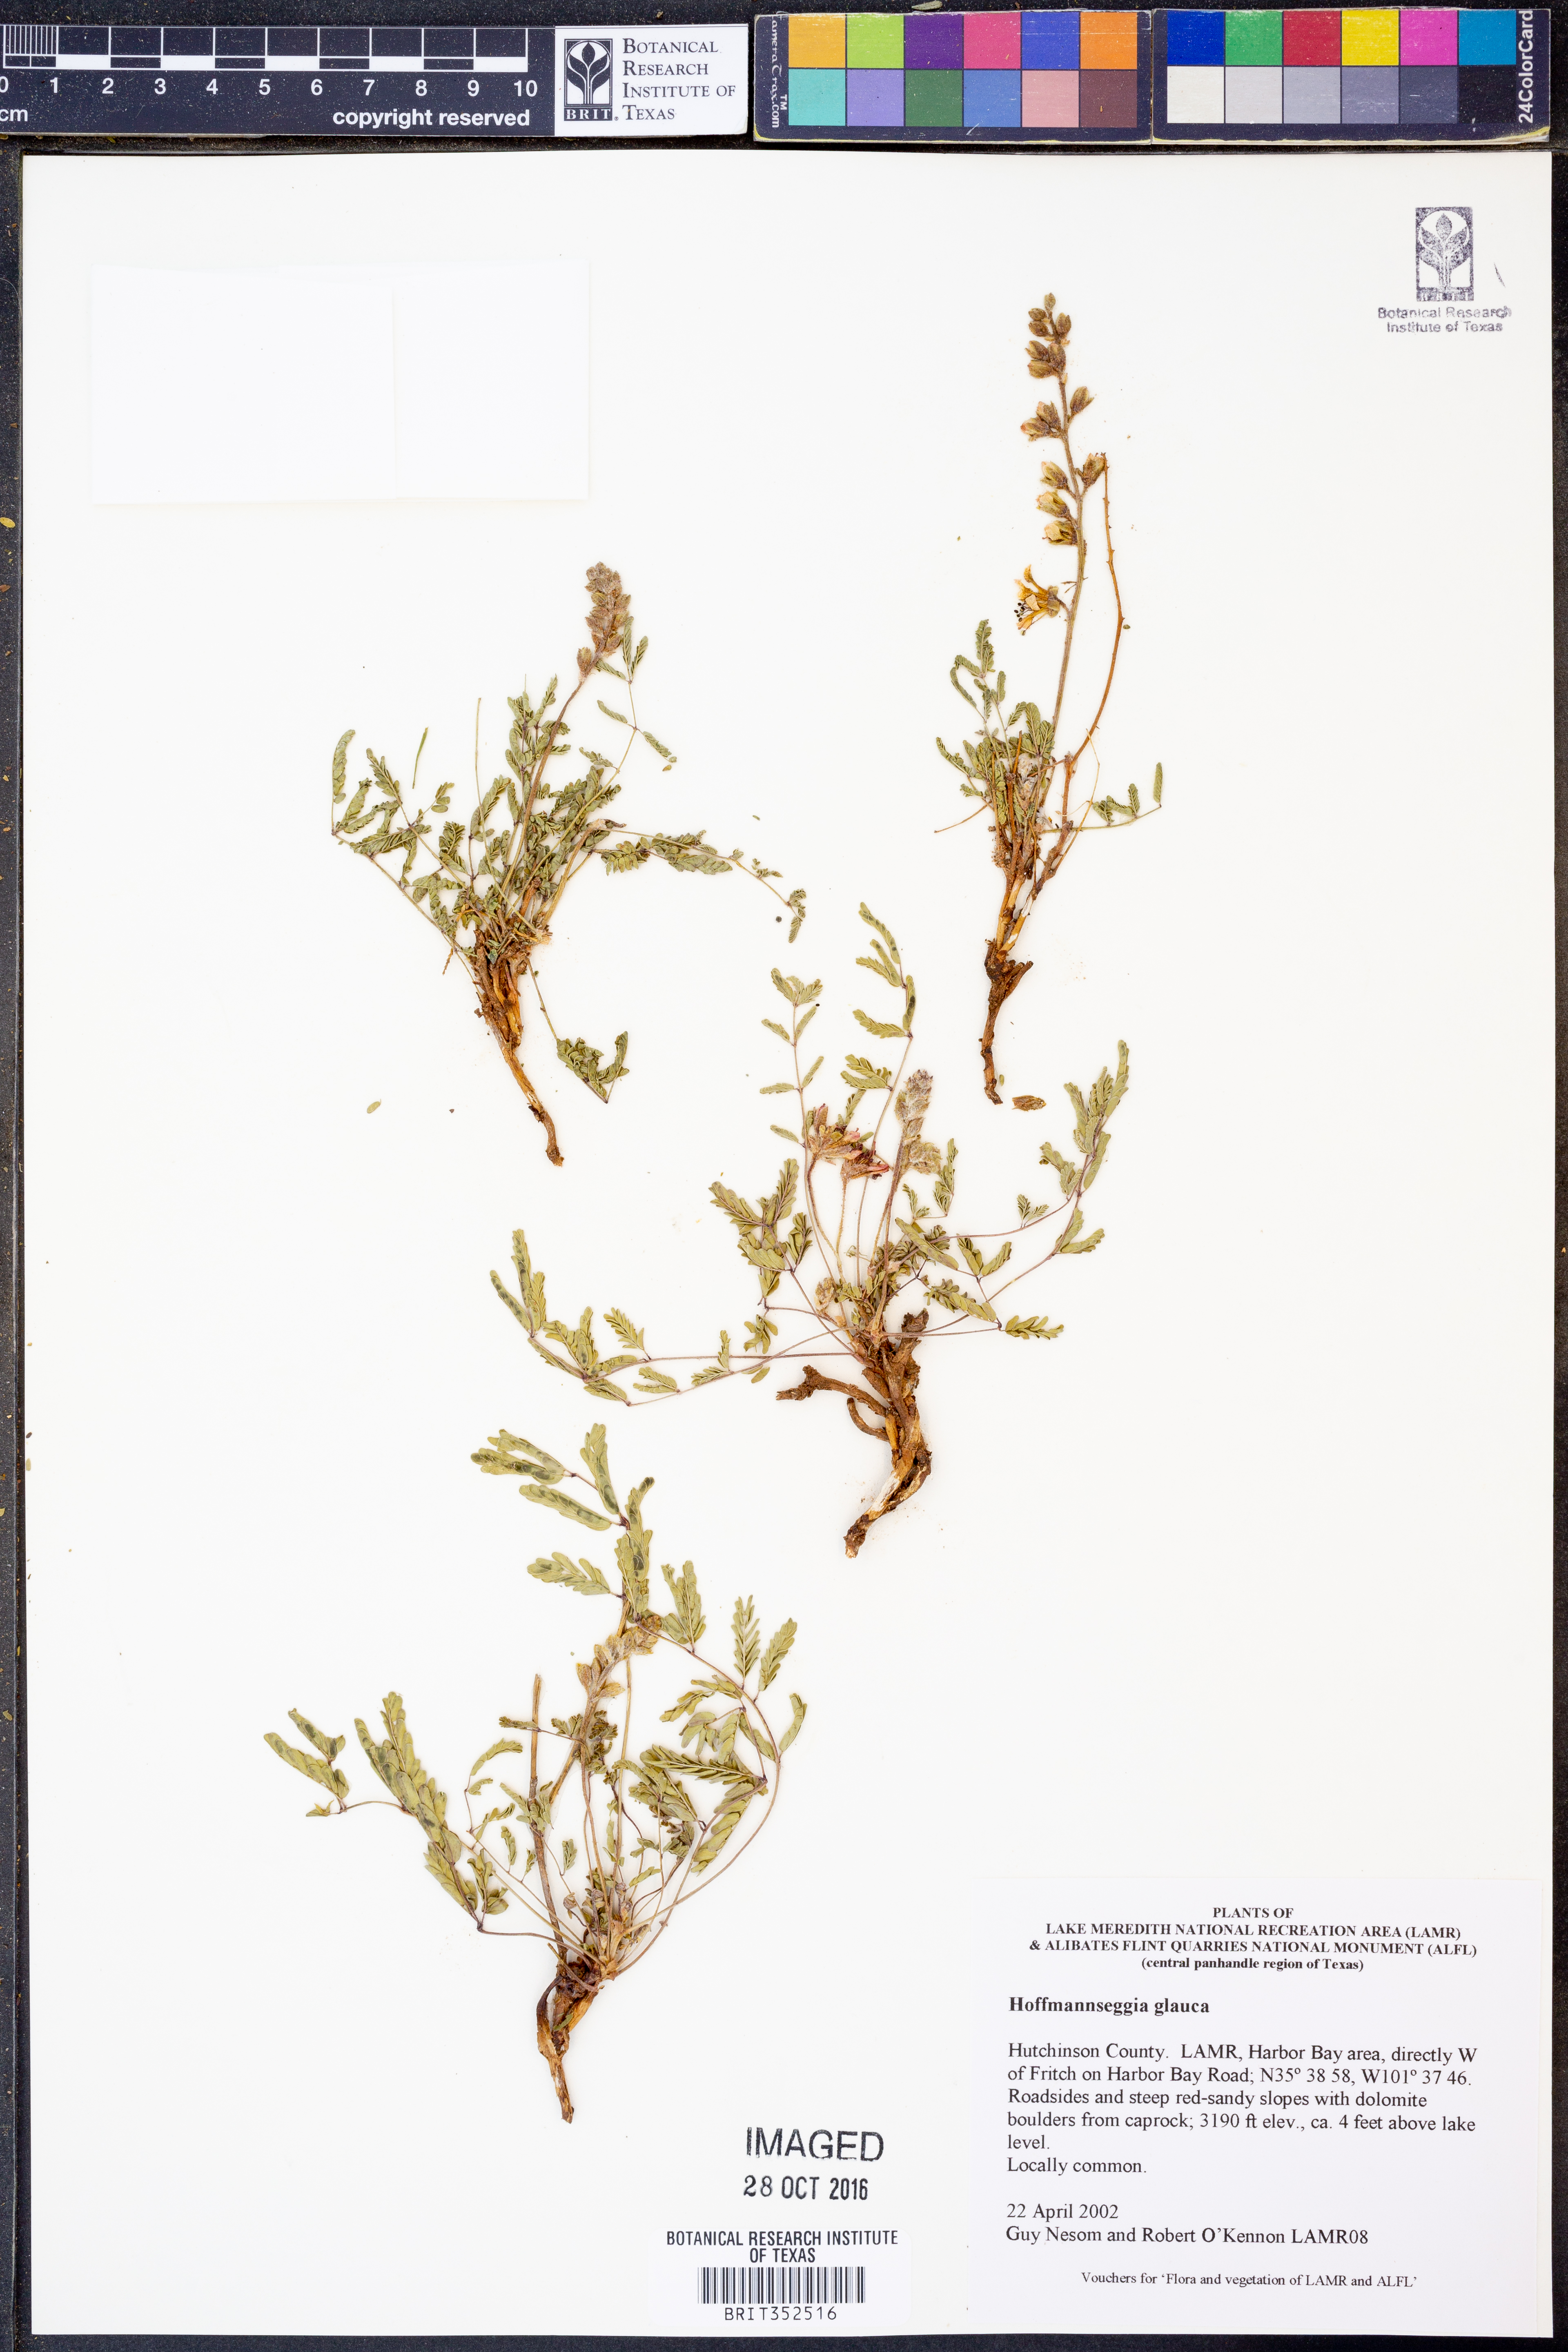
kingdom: Plantae
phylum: Tracheophyta
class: Magnoliopsida
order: Fabales
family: Fabaceae
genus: Hoffmannseggia
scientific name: Hoffmannseggia glauca
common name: Pignut
